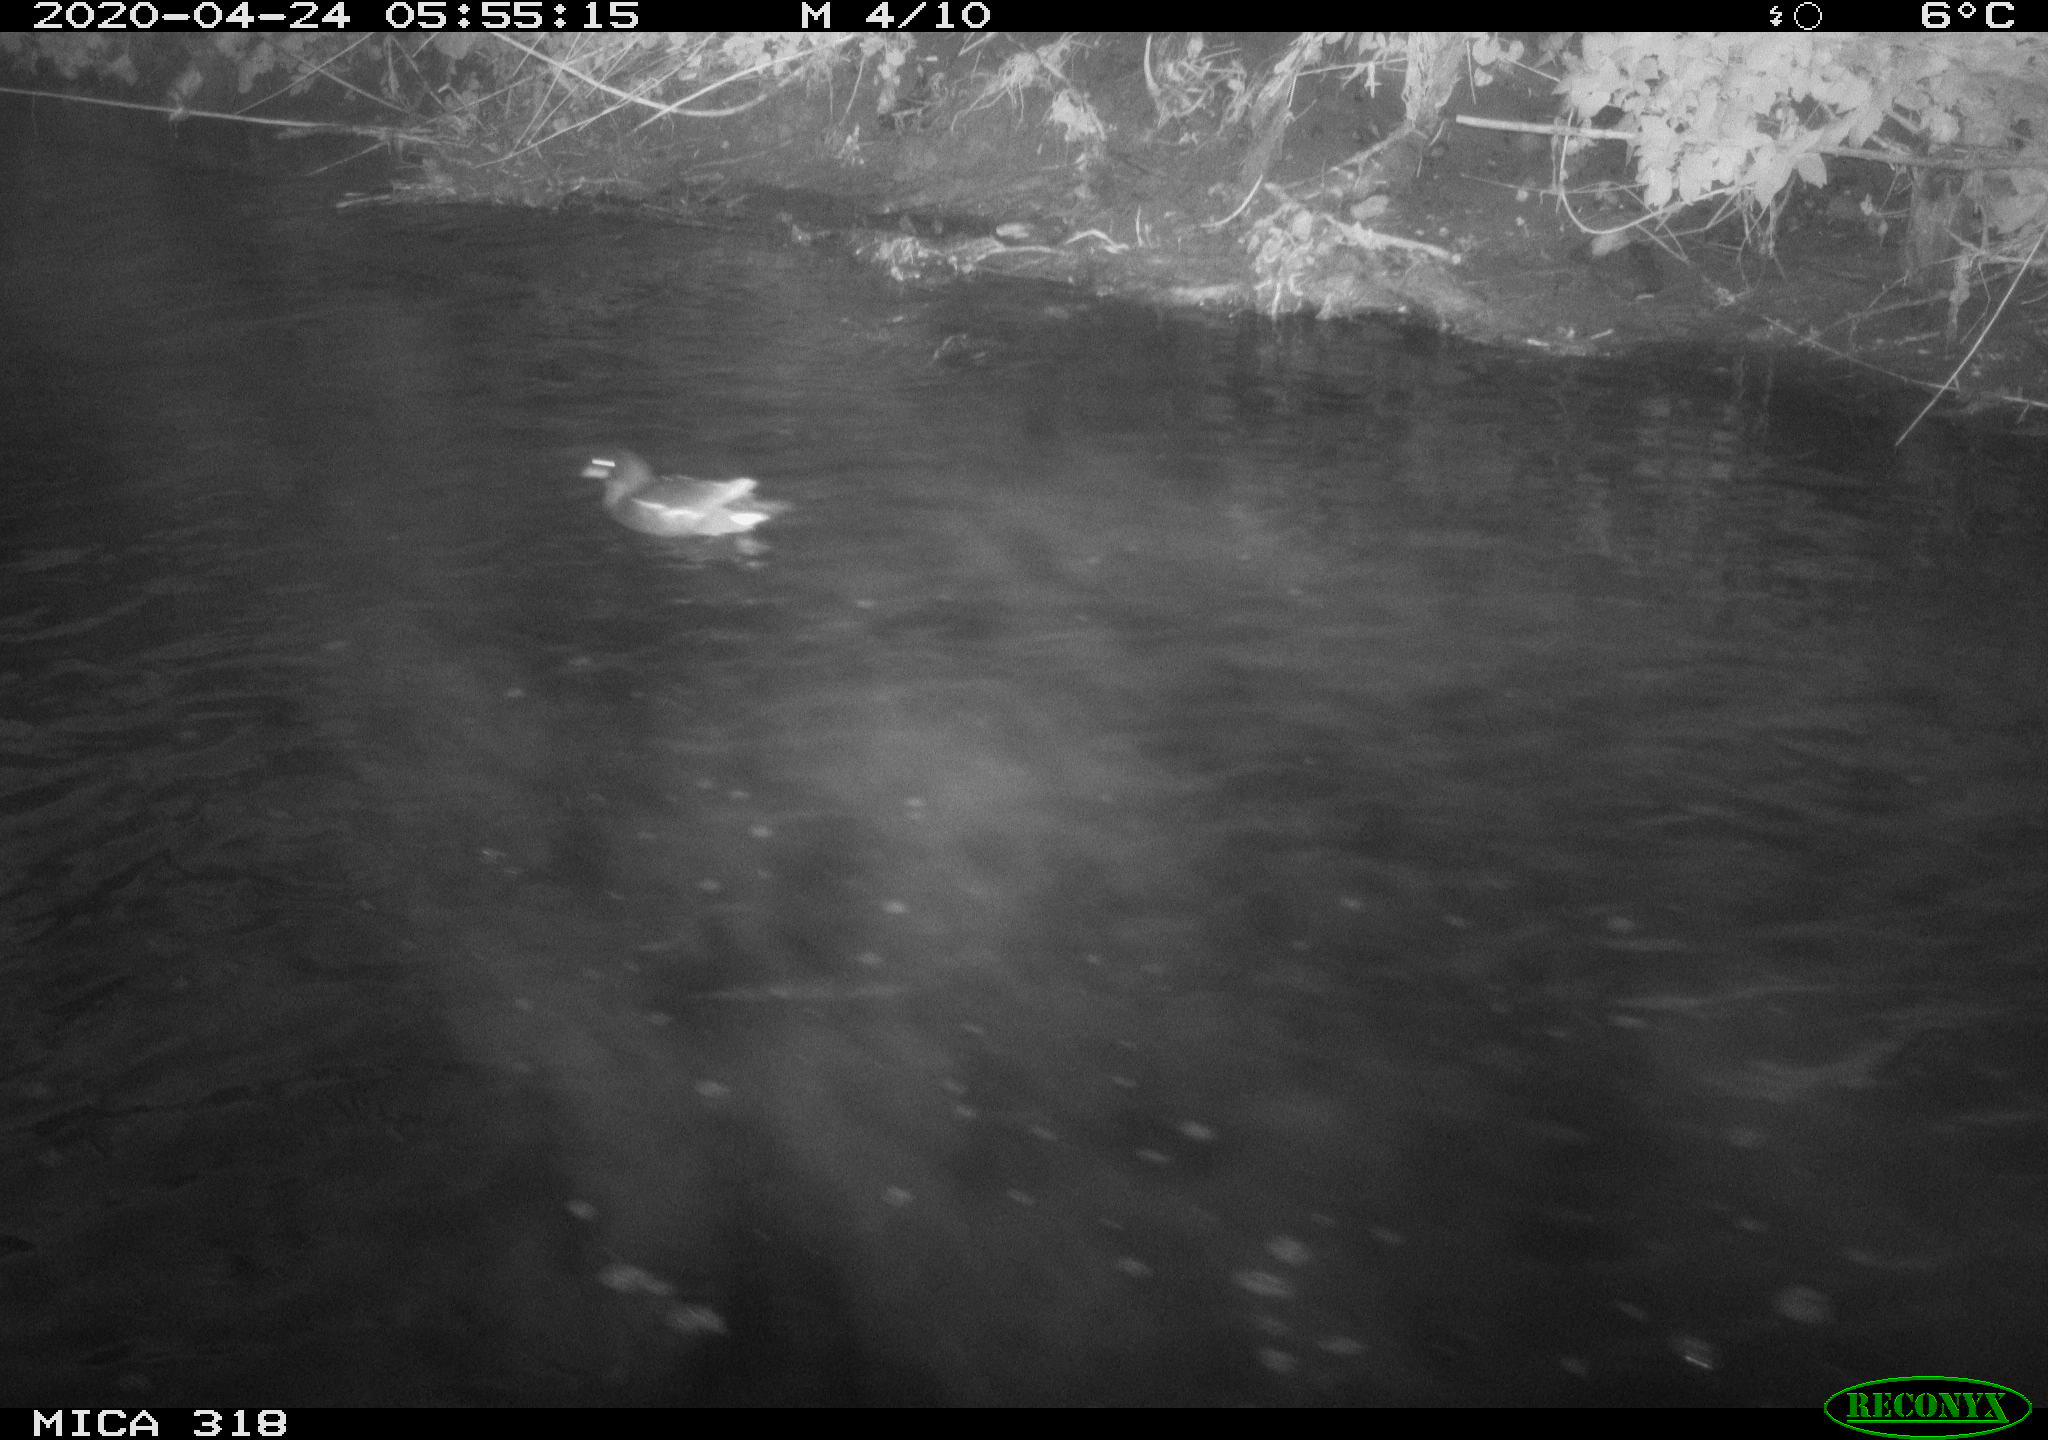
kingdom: Animalia
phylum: Chordata
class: Aves
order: Gruiformes
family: Rallidae
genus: Gallinula
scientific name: Gallinula chloropus
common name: Common moorhen
